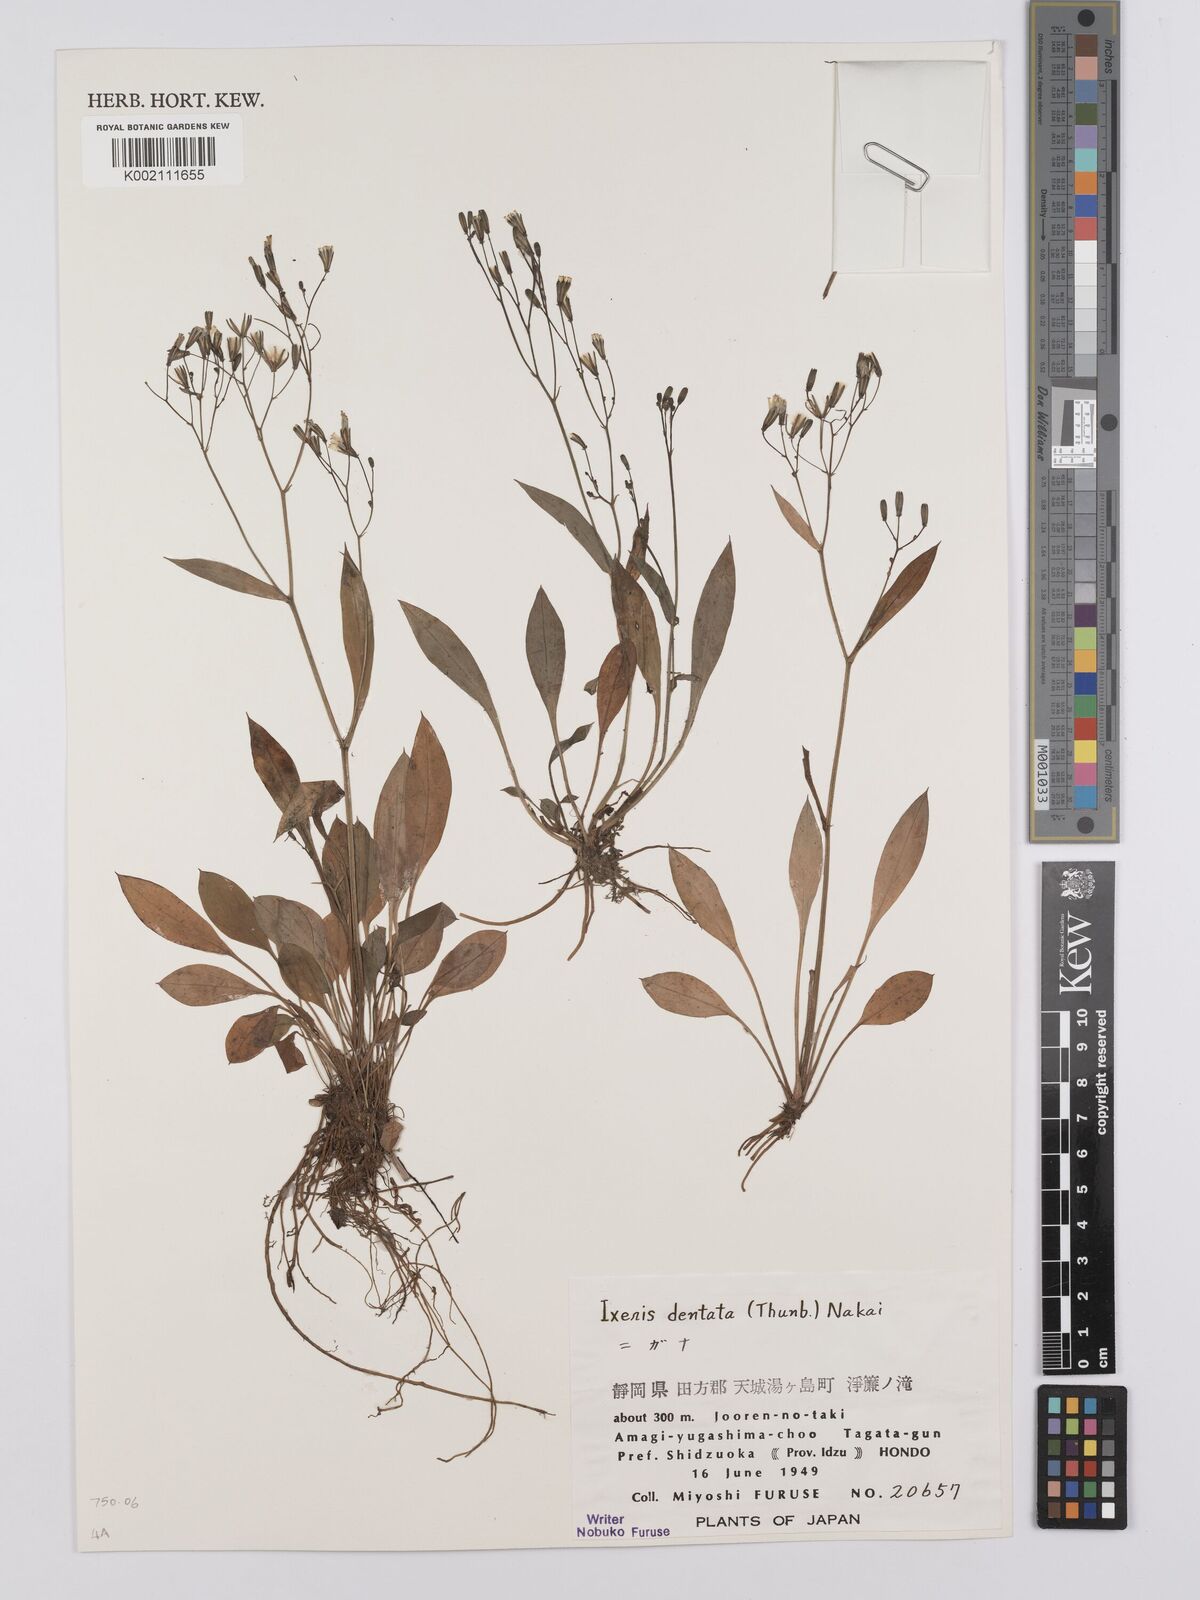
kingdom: Plantae
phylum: Tracheophyta
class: Magnoliopsida
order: Asterales
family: Asteraceae
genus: Ixeridium
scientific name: Ixeridium dentatum
